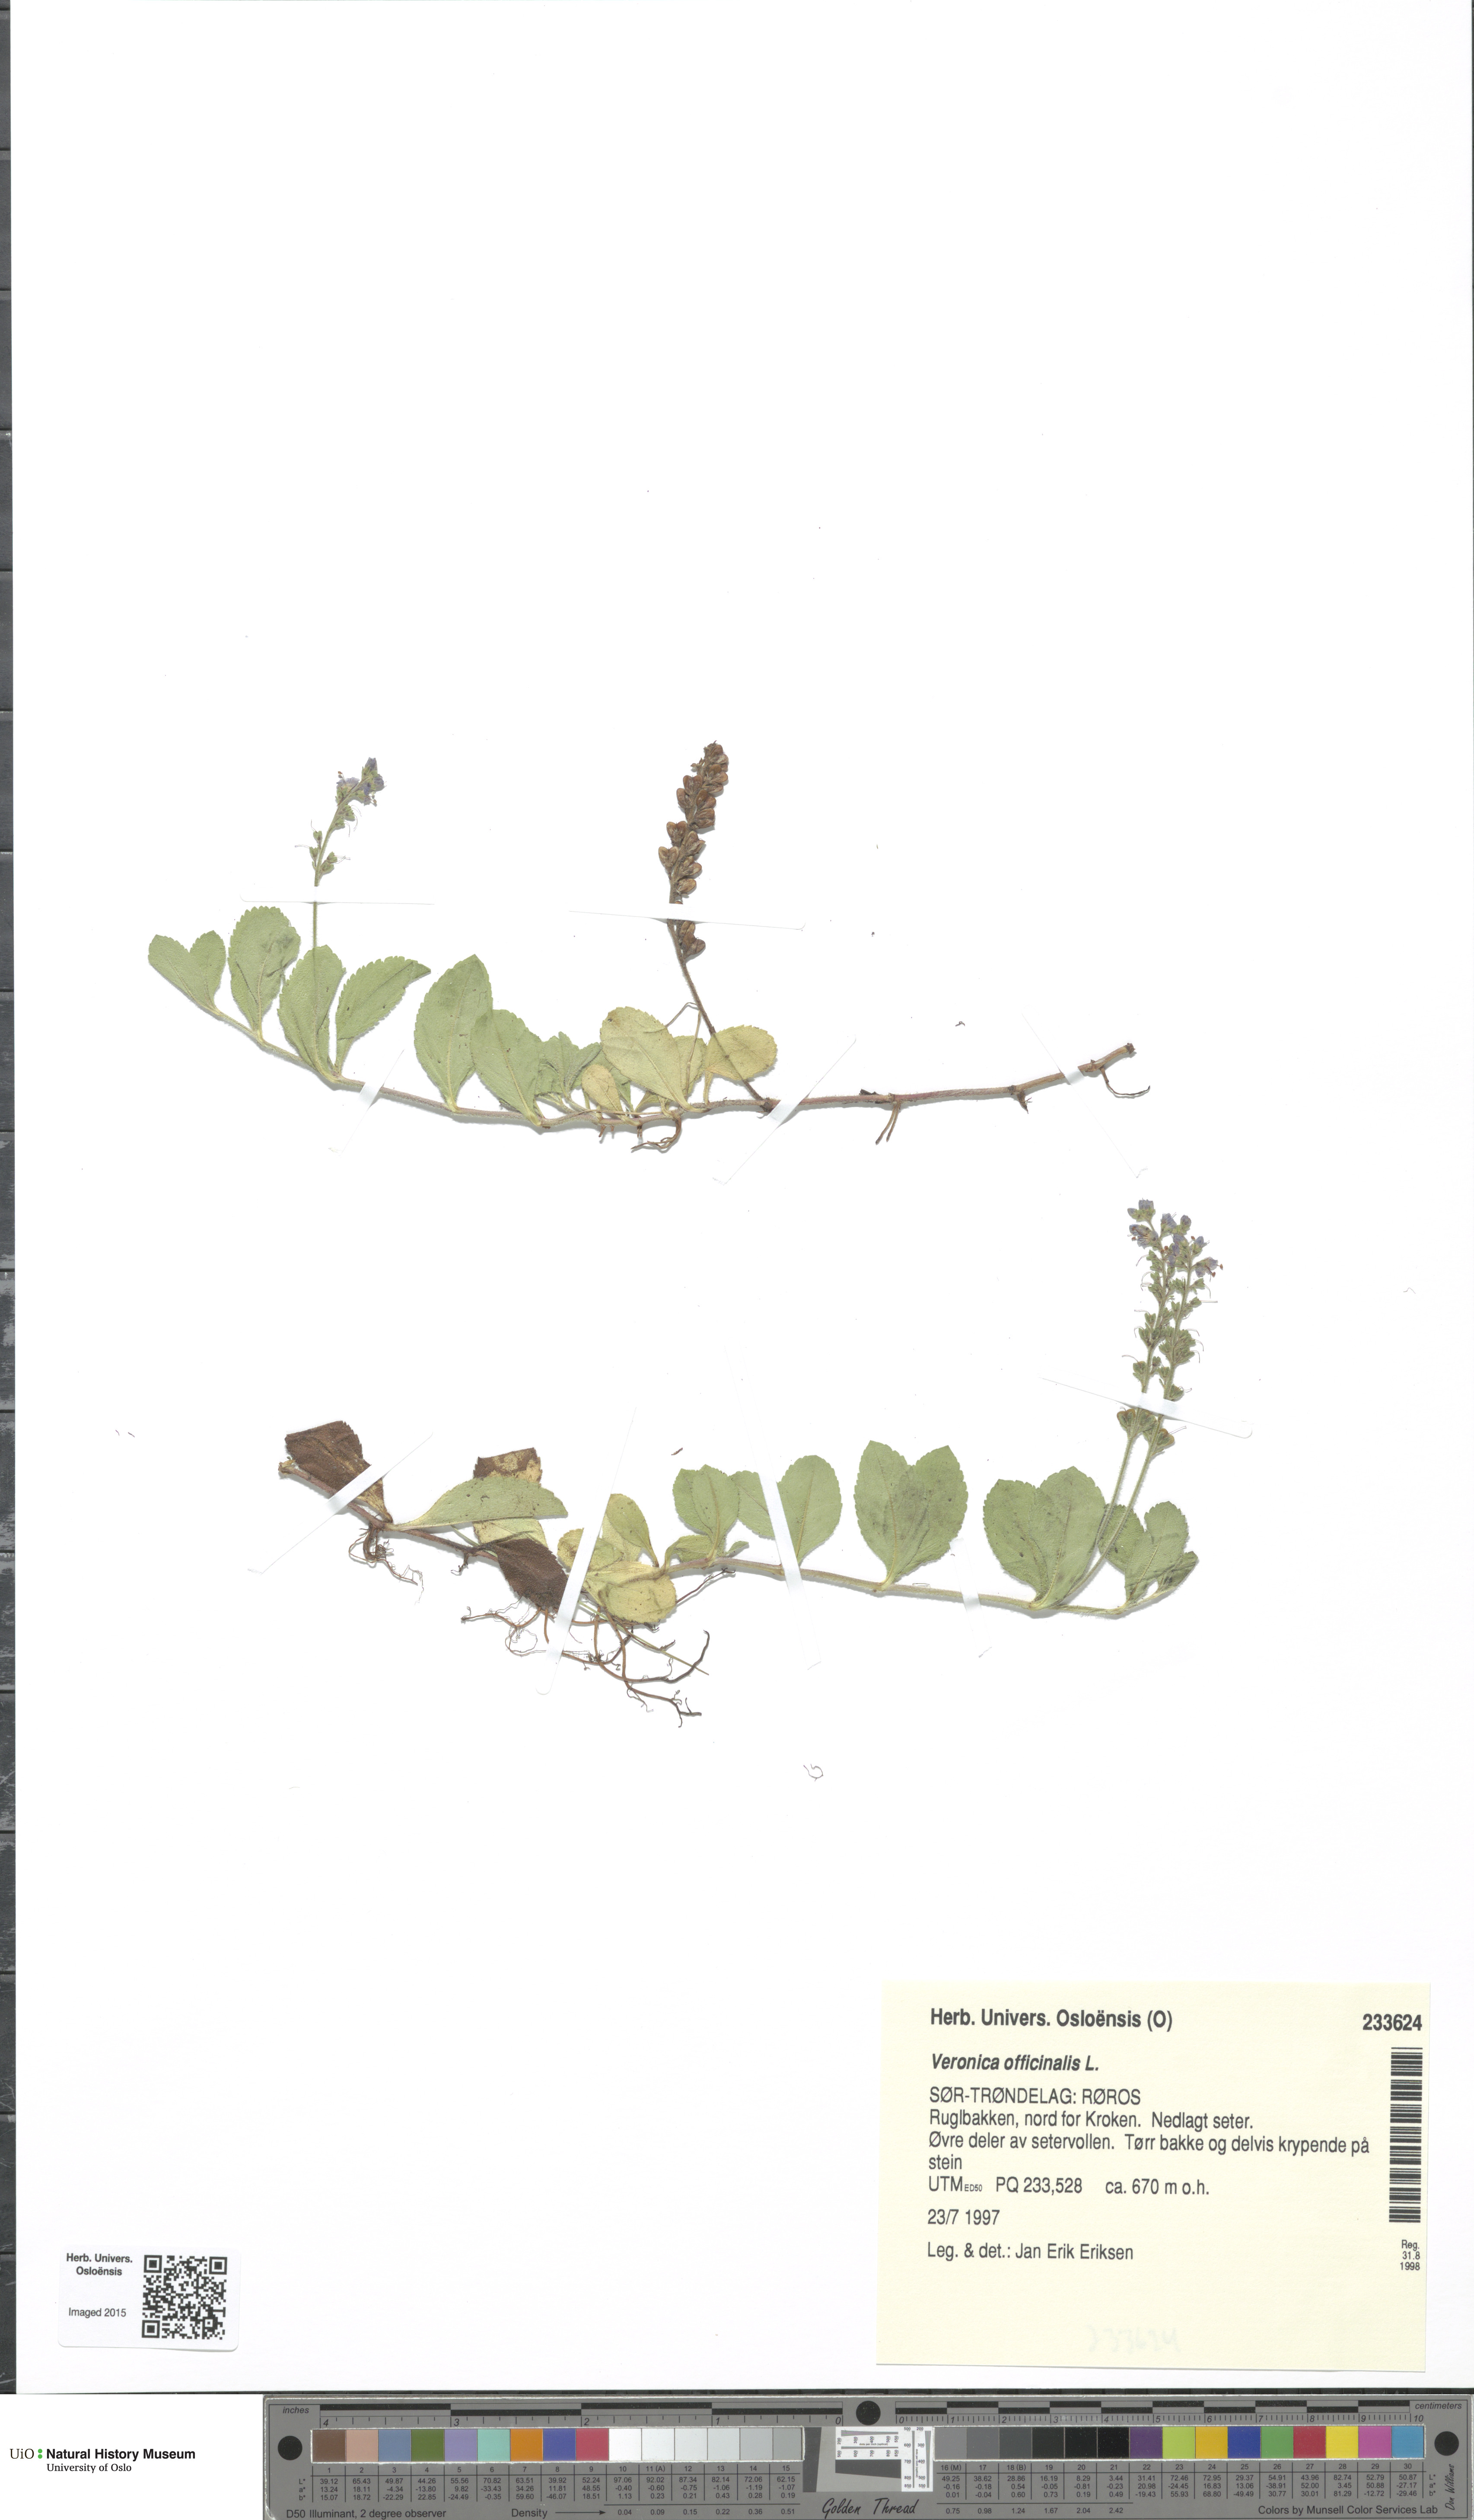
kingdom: Plantae
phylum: Tracheophyta
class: Magnoliopsida
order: Lamiales
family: Plantaginaceae
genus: Veronica
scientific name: Veronica officinalis
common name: Common speedwell
